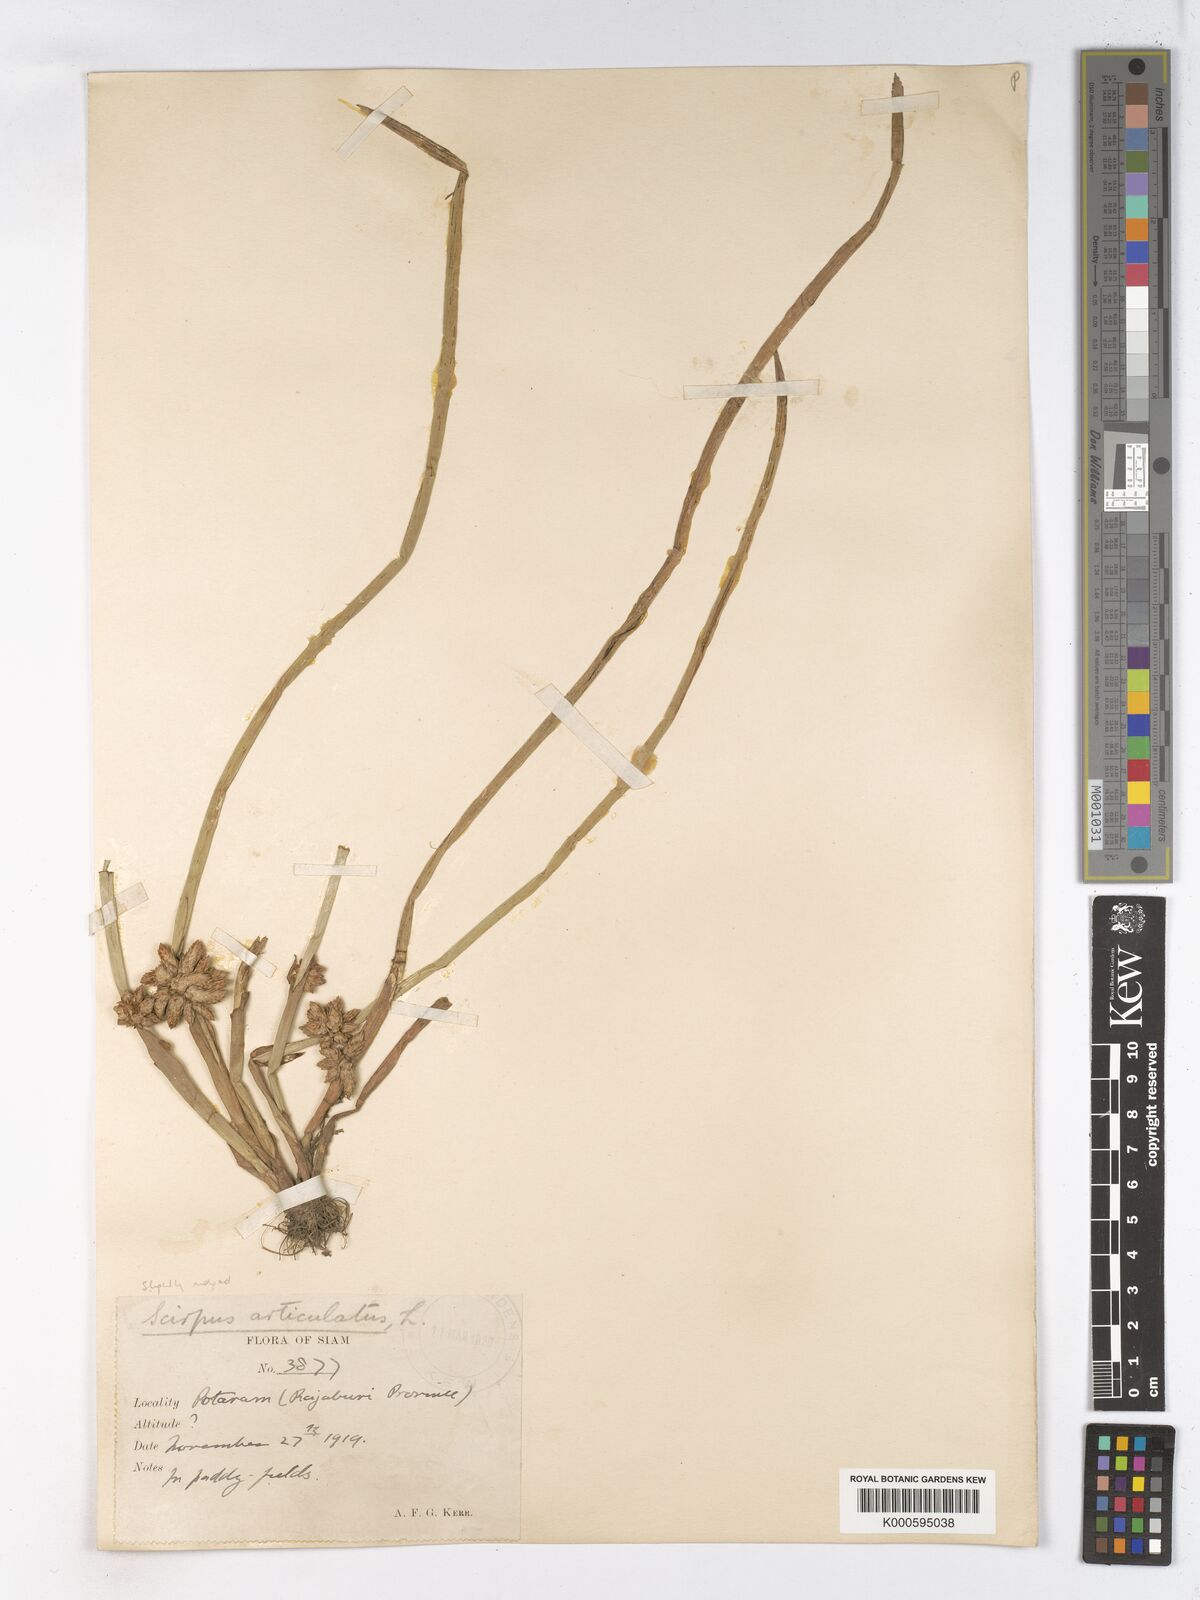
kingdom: Plantae
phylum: Tracheophyta
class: Liliopsida
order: Poales
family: Cyperaceae
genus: Schoenoplectiella
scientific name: Schoenoplectiella articulata
